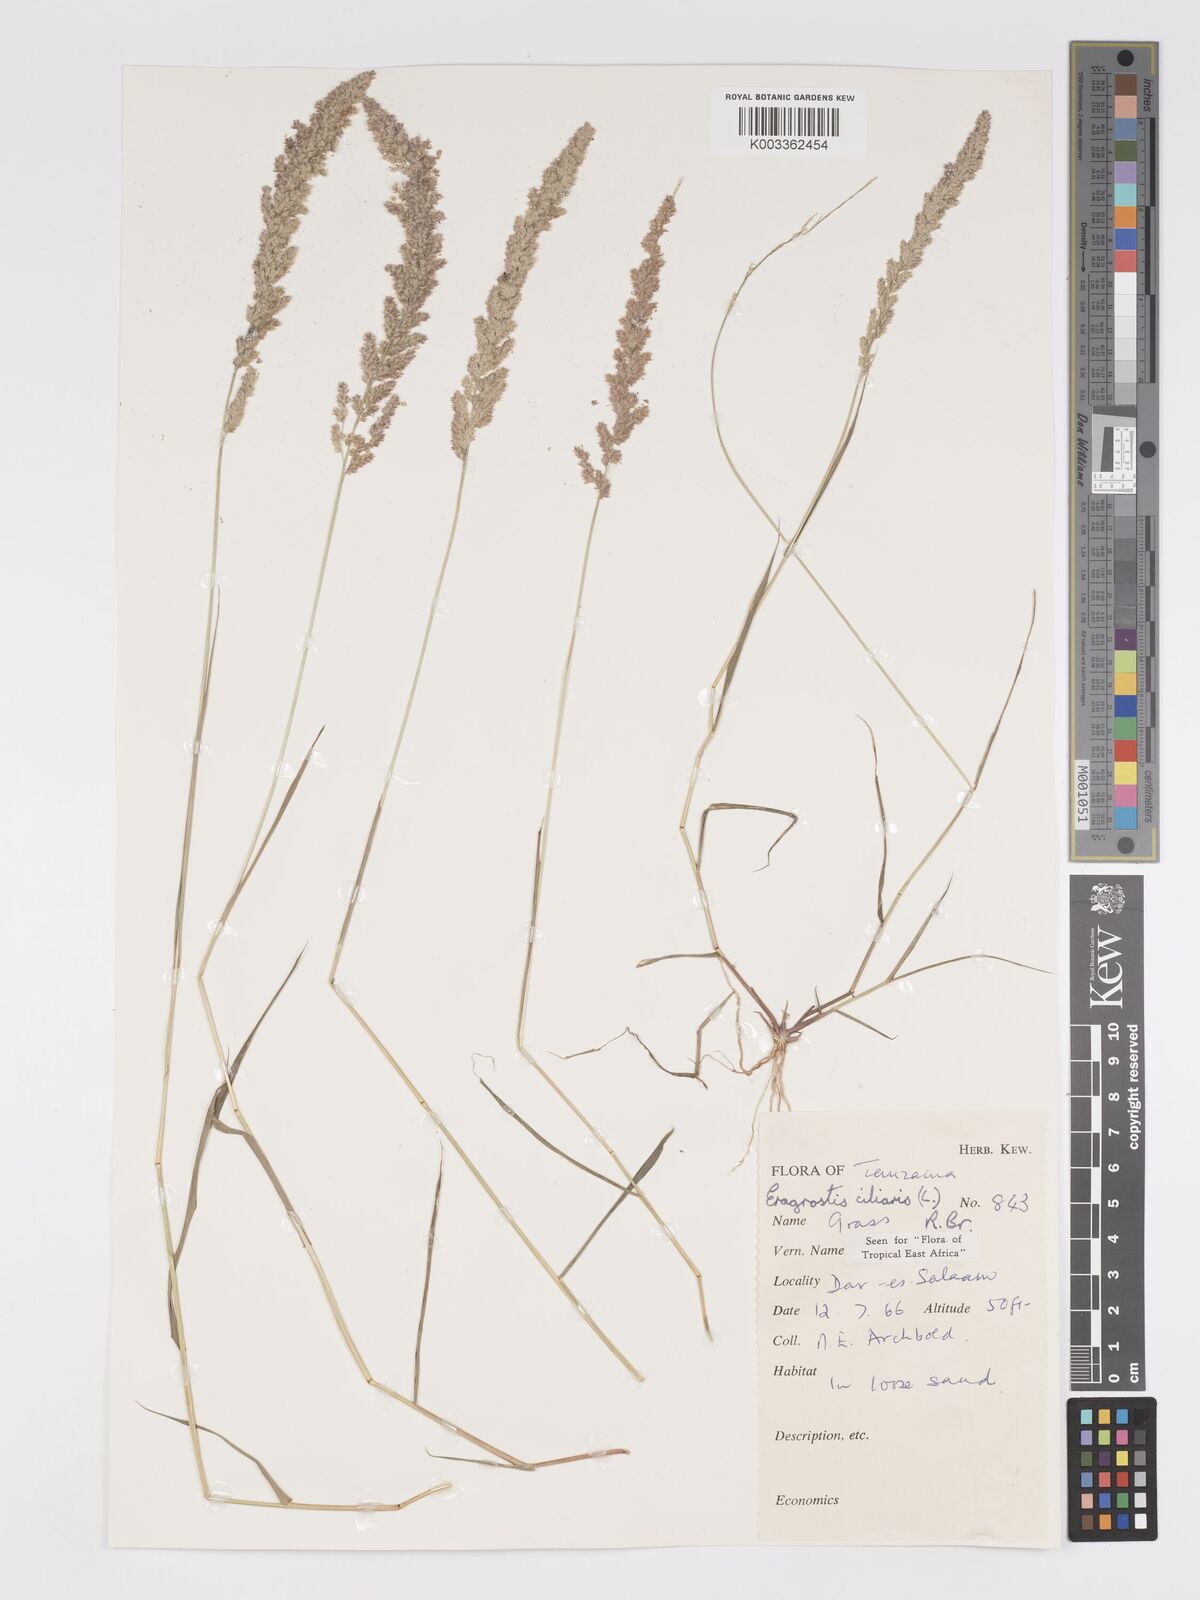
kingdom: Plantae
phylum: Tracheophyta
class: Liliopsida
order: Poales
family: Poaceae
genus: Eragrostis
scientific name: Eragrostis ciliaris
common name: Gophertail lovegrass
